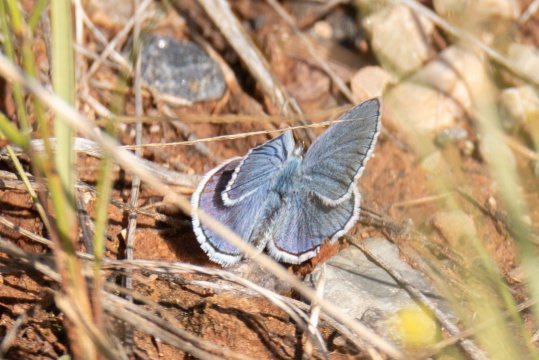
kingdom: Animalia
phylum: Arthropoda
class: Insecta
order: Lepidoptera
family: Lycaenidae
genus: Lycaeides
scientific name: Lycaeides melissa
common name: Melissa Blue
